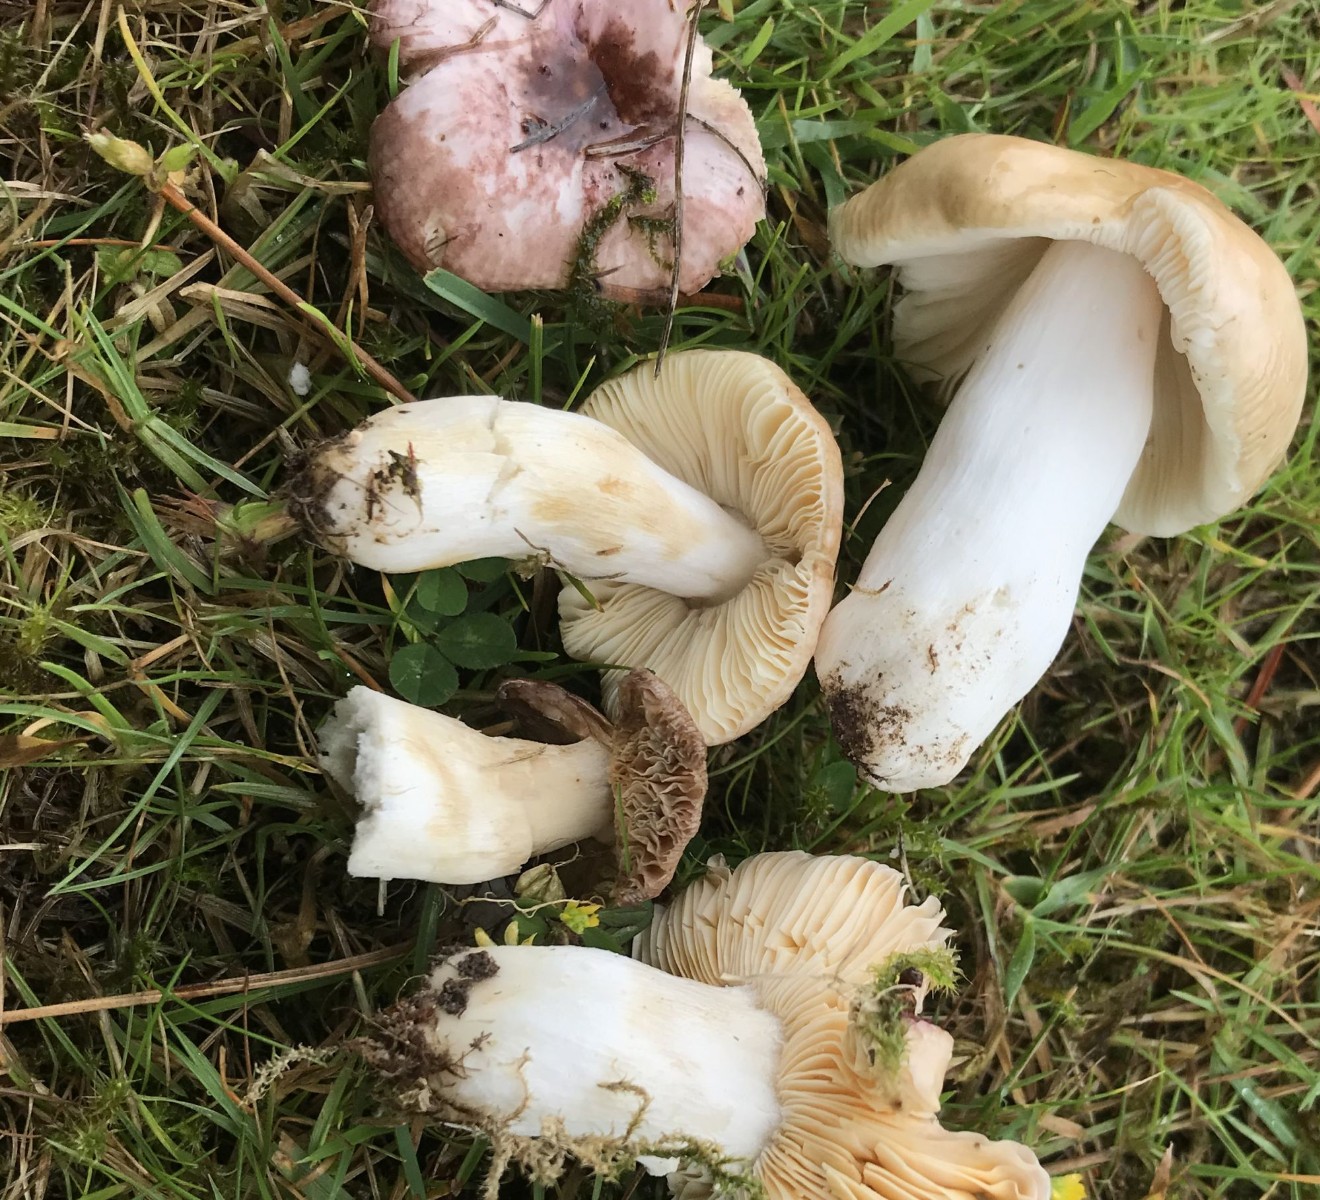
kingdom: Fungi
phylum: Basidiomycota
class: Agaricomycetes
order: Russulales
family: Russulaceae
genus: Russula
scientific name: Russula cessans
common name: fyrre-skørhat
